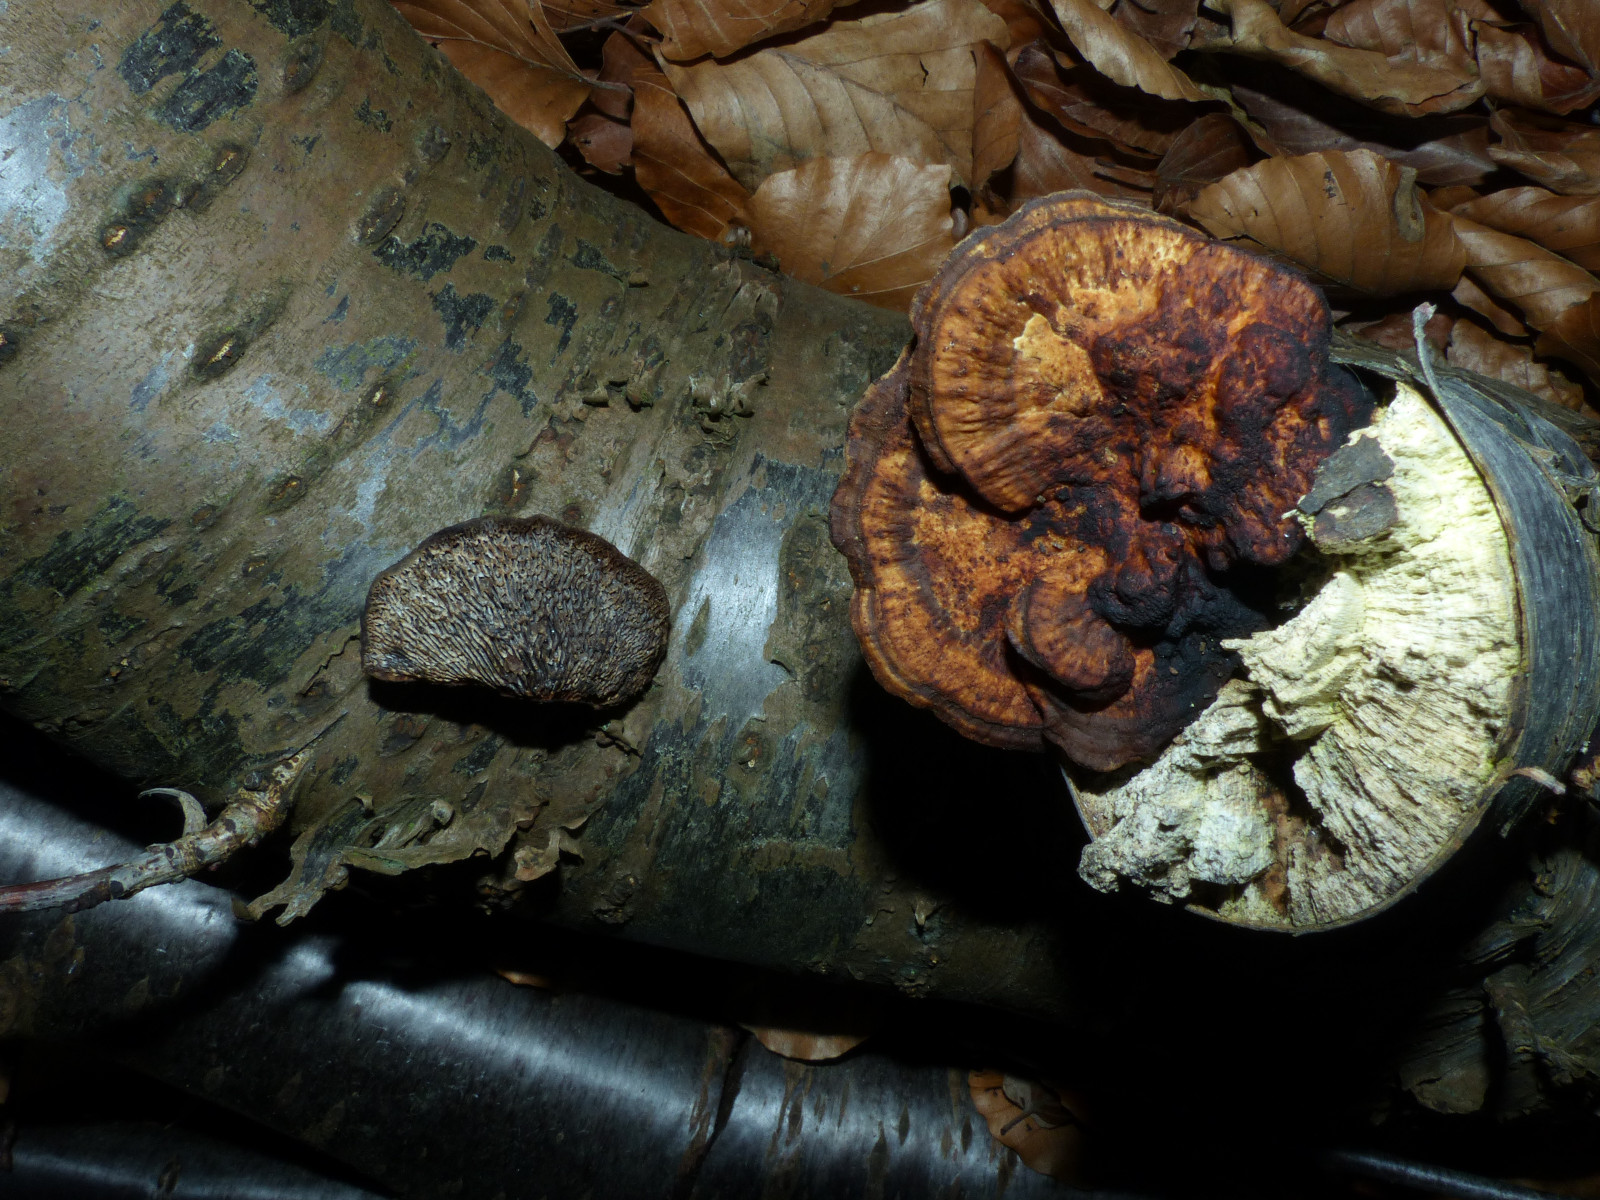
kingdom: Fungi
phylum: Basidiomycota
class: Agaricomycetes
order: Polyporales
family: Polyporaceae
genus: Daedaleopsis
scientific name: Daedaleopsis confragosa
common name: rødmende læderporesvamp
